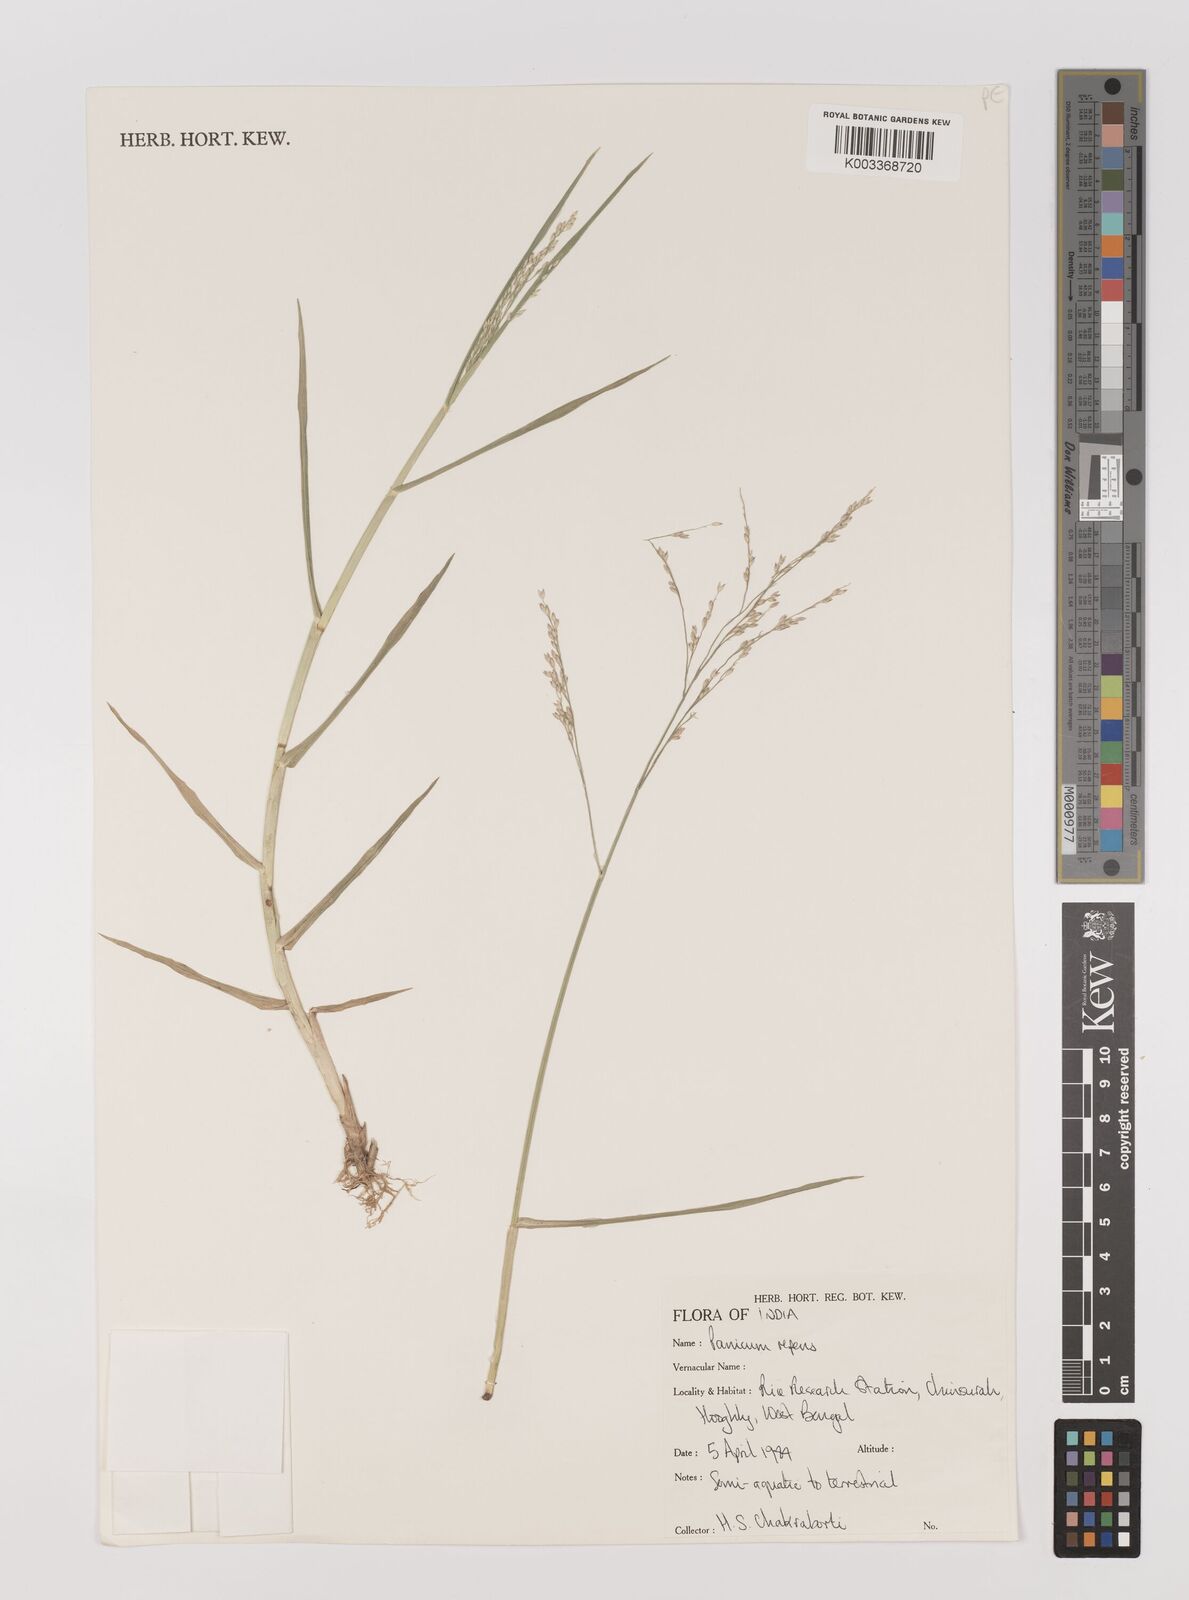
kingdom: Plantae
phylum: Tracheophyta
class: Liliopsida
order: Poales
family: Poaceae
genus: Panicum
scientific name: Panicum repens
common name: Torpedo grass
